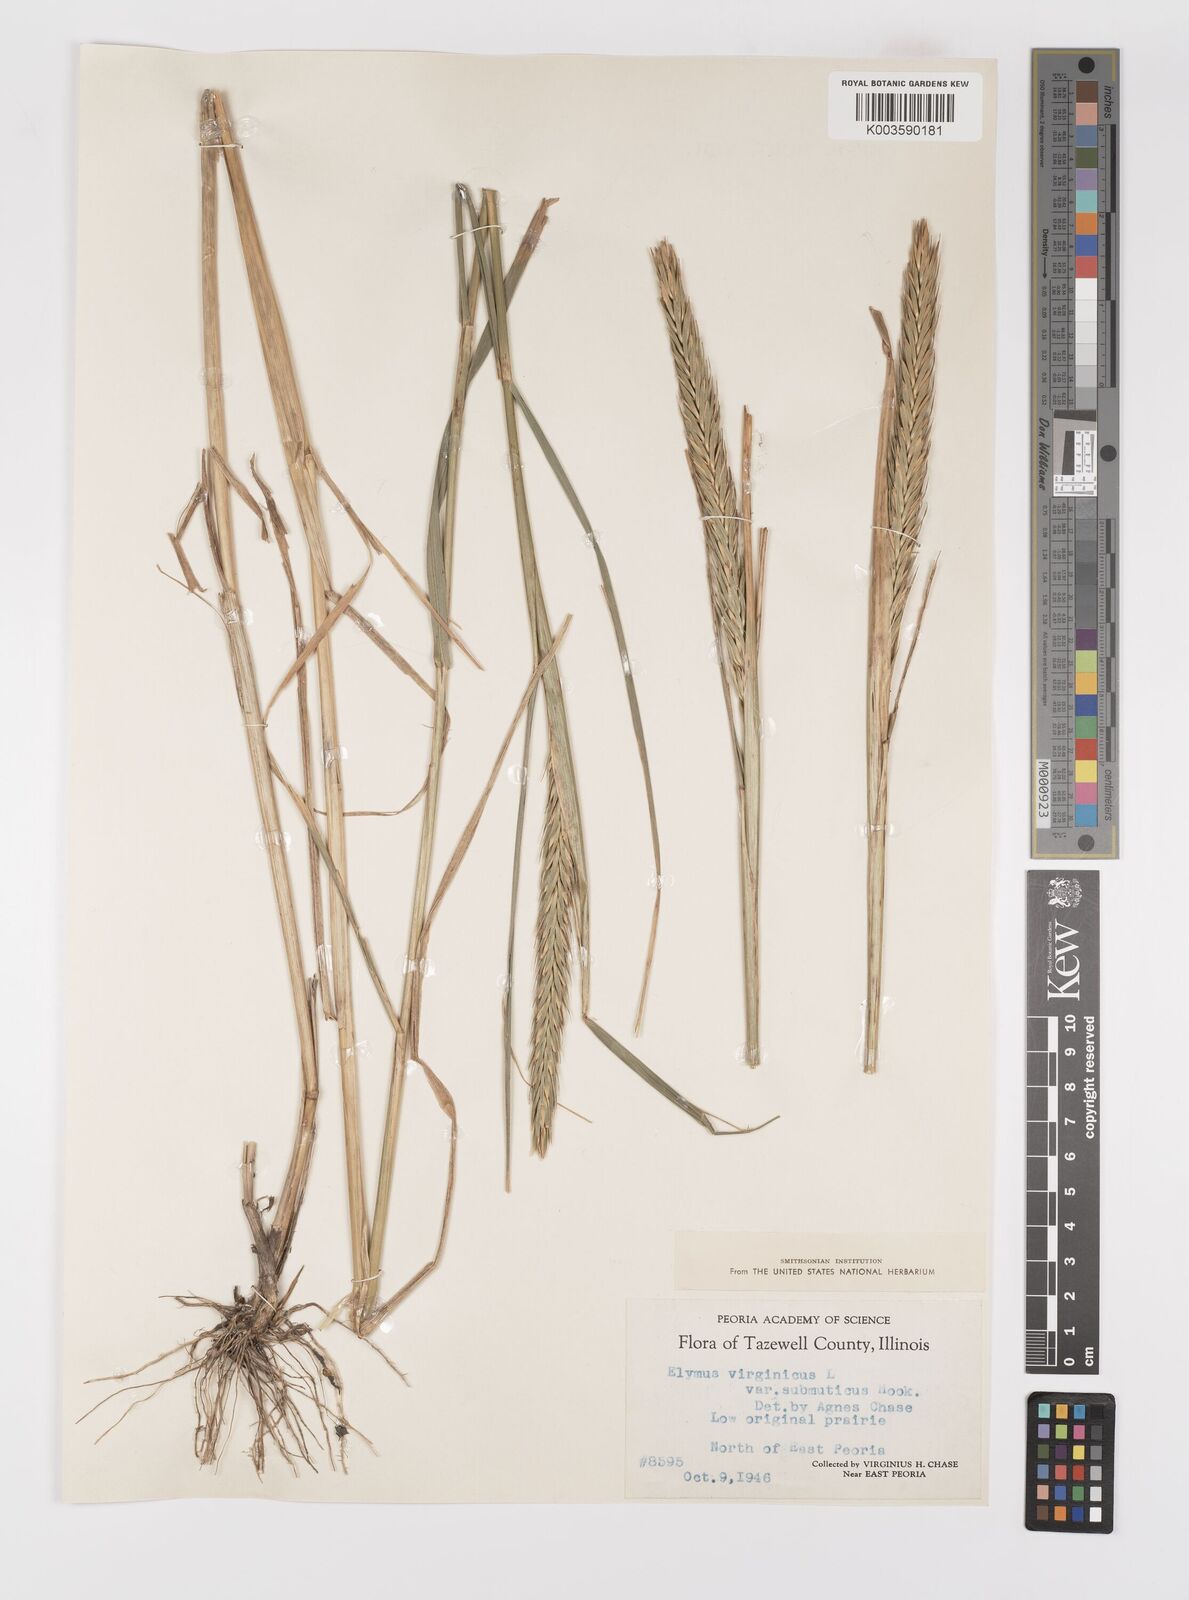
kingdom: Plantae
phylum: Tracheophyta
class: Liliopsida
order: Poales
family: Poaceae
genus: Elymus
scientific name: Elymus curvatus
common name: Awnless wild rye
